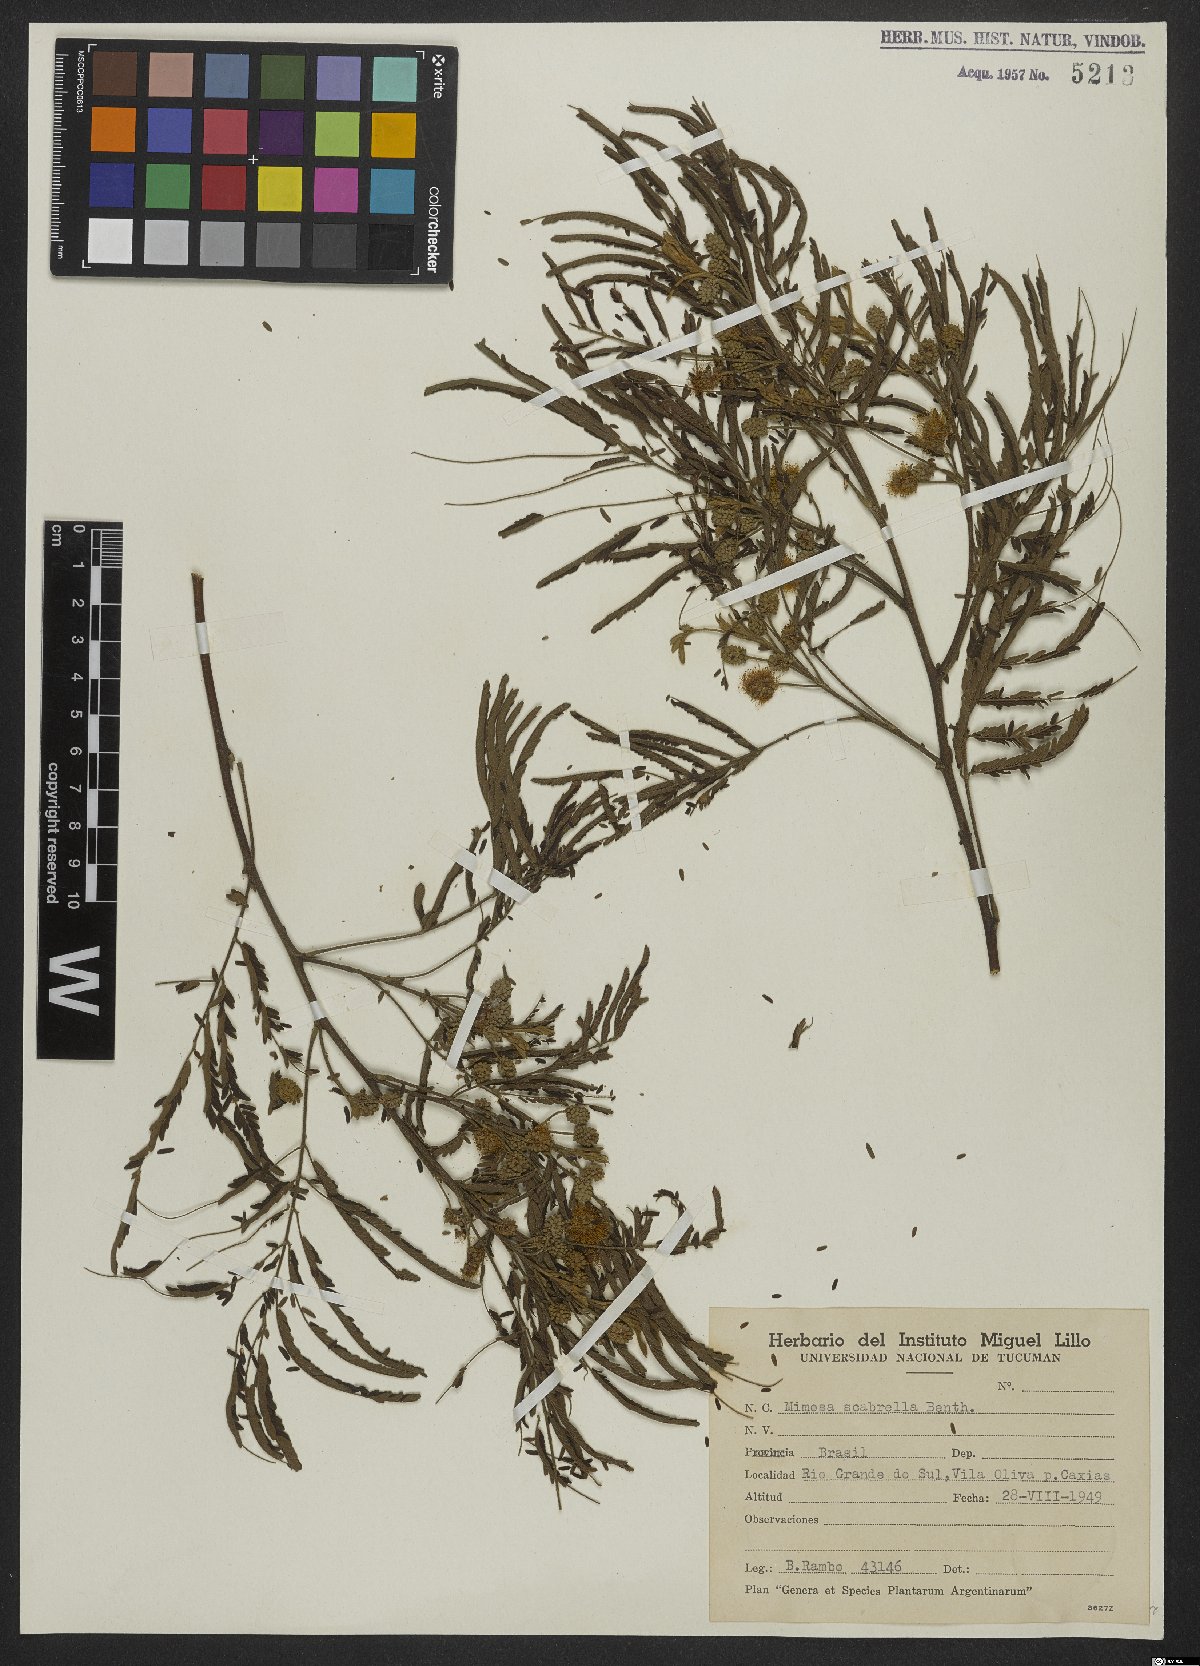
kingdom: Plantae
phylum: Tracheophyta
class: Magnoliopsida
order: Fabales
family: Fabaceae
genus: Mimosa
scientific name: Mimosa scabrella
